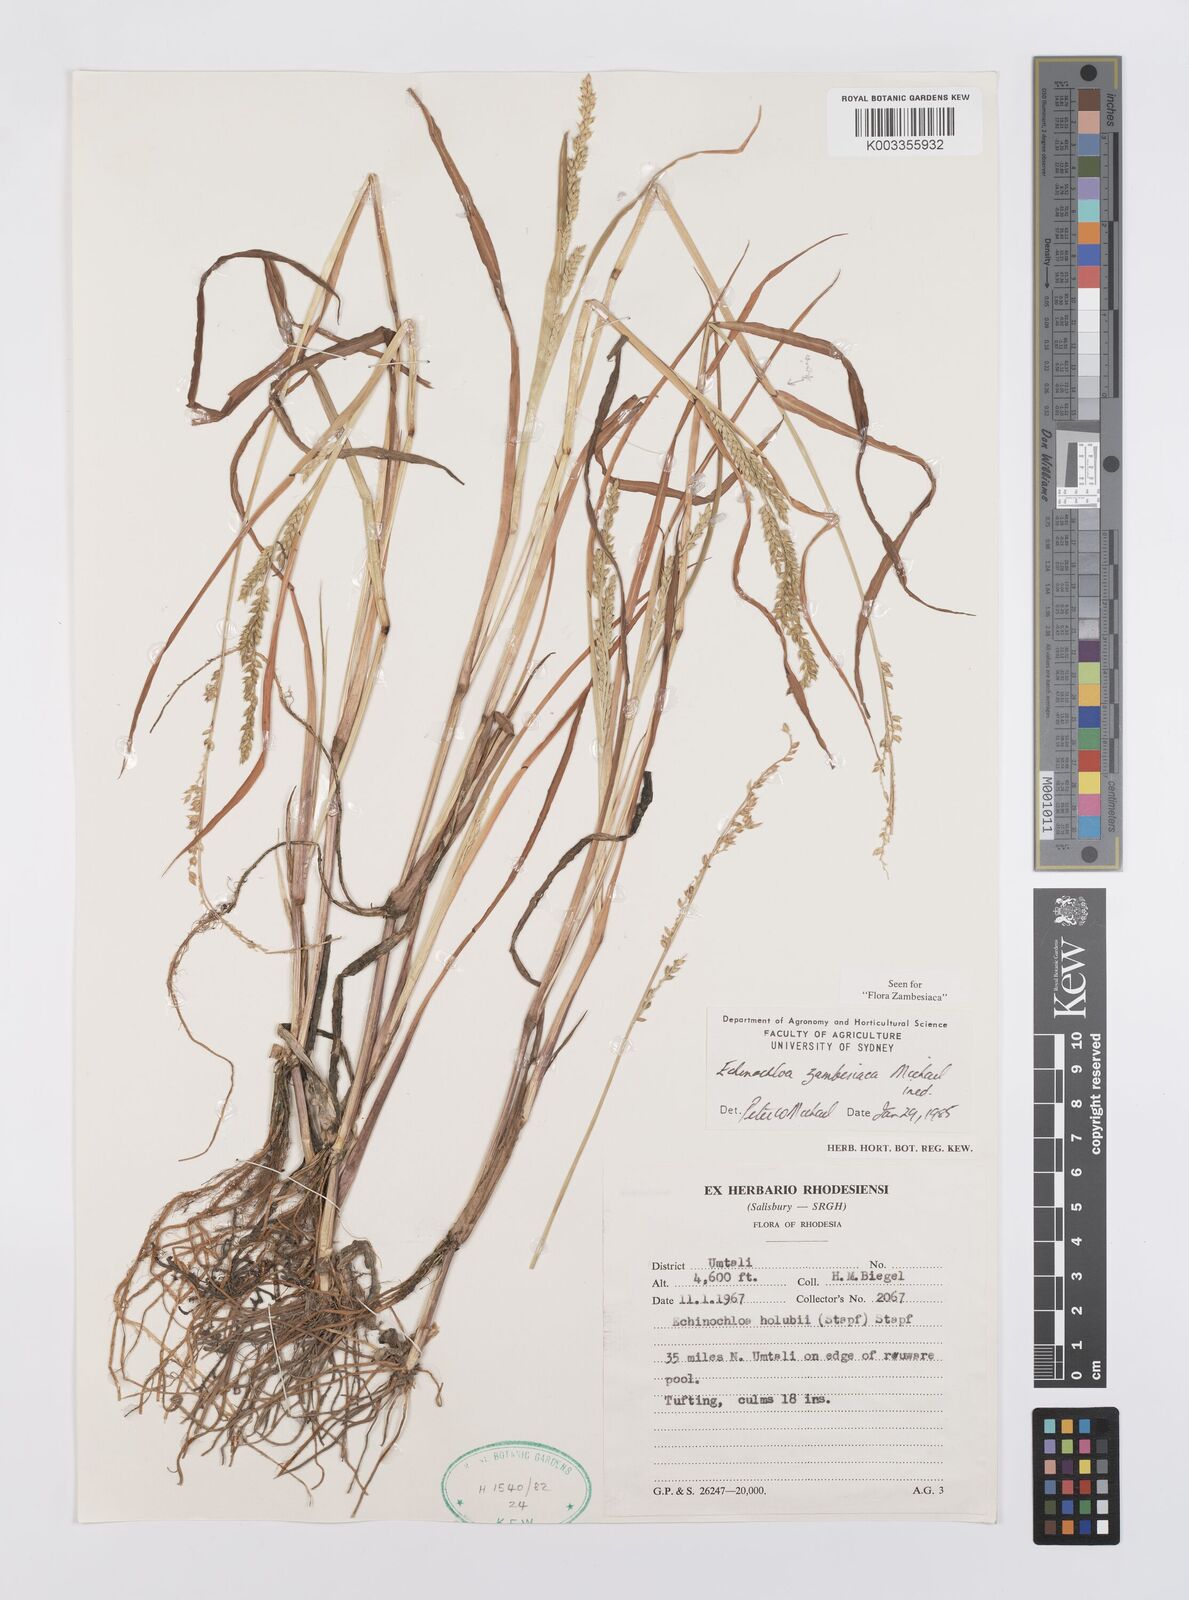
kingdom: Plantae
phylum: Tracheophyta
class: Liliopsida
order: Poales
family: Poaceae
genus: Echinochloa
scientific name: Echinochloa ugandensis
